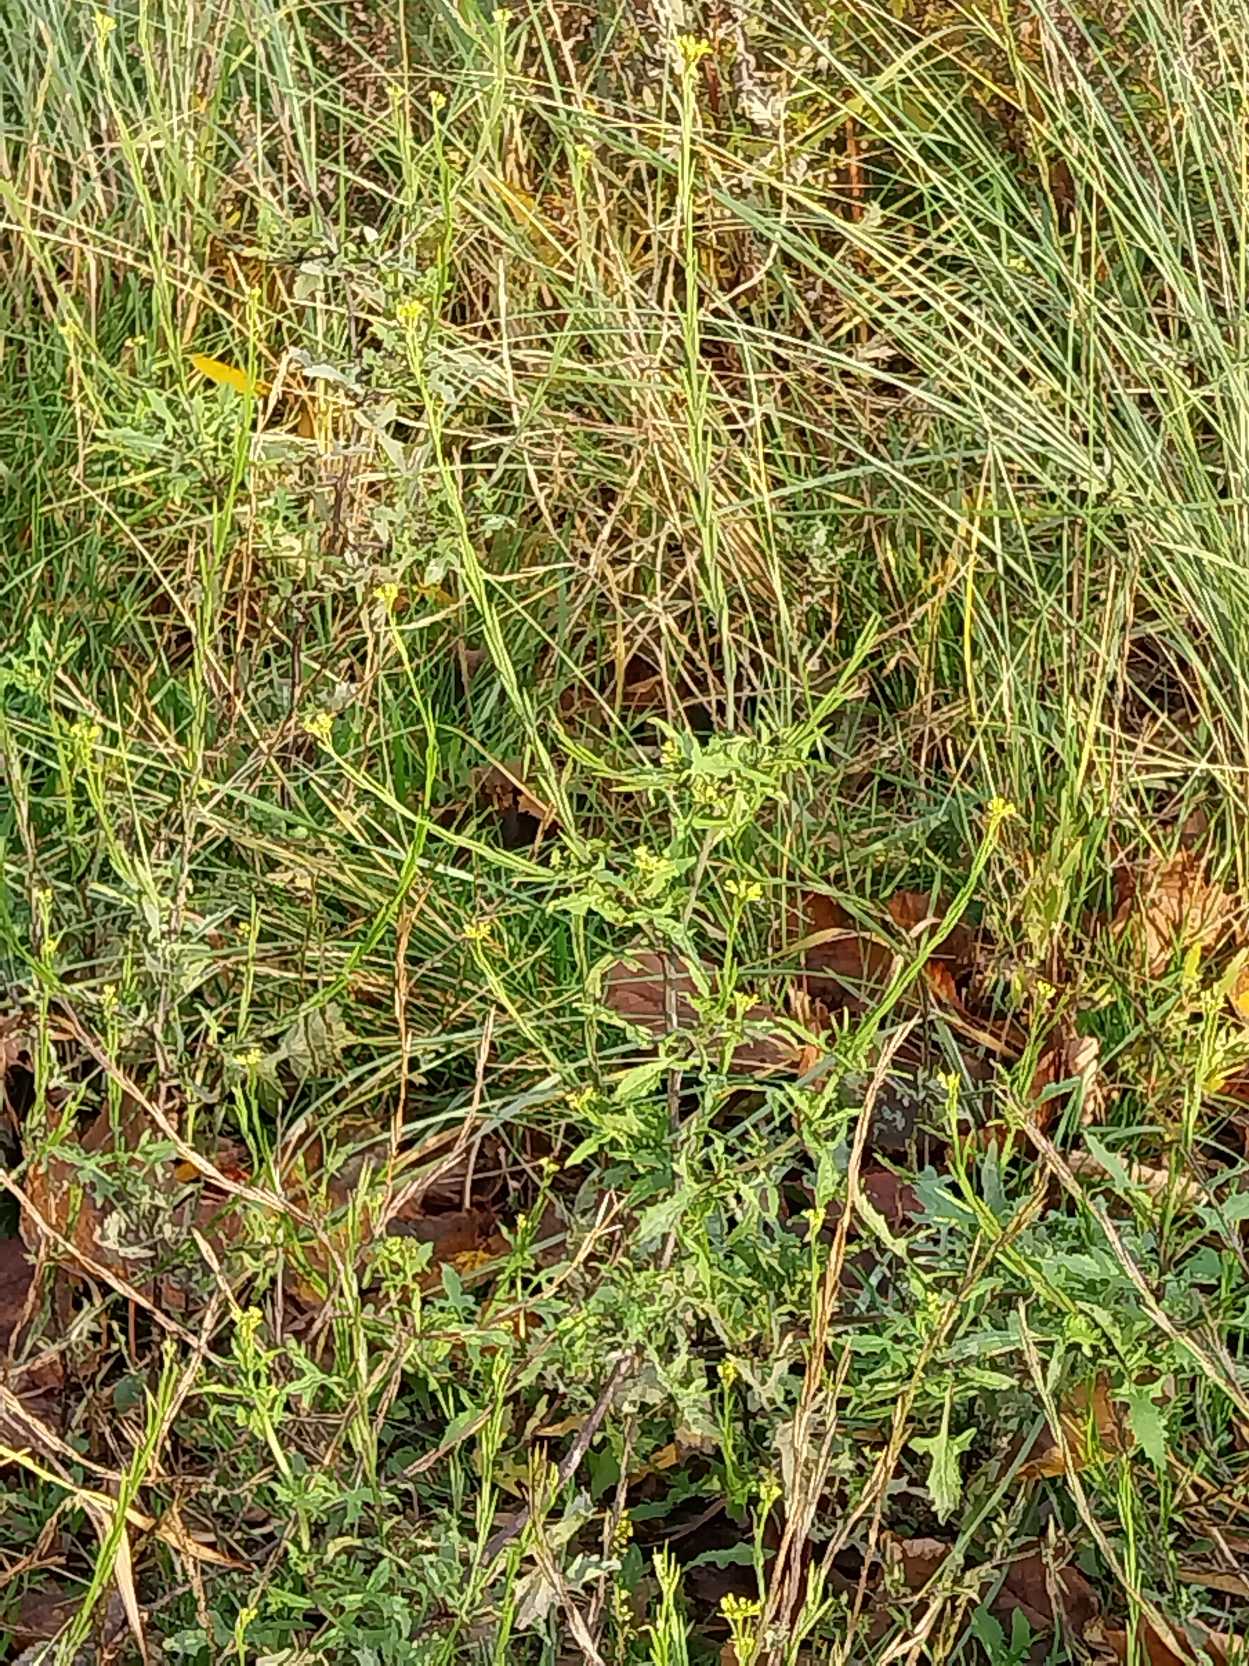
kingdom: Plantae
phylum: Tracheophyta
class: Magnoliopsida
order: Brassicales
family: Brassicaceae
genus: Sisymbrium
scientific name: Sisymbrium officinale
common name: Rank vejsennep
